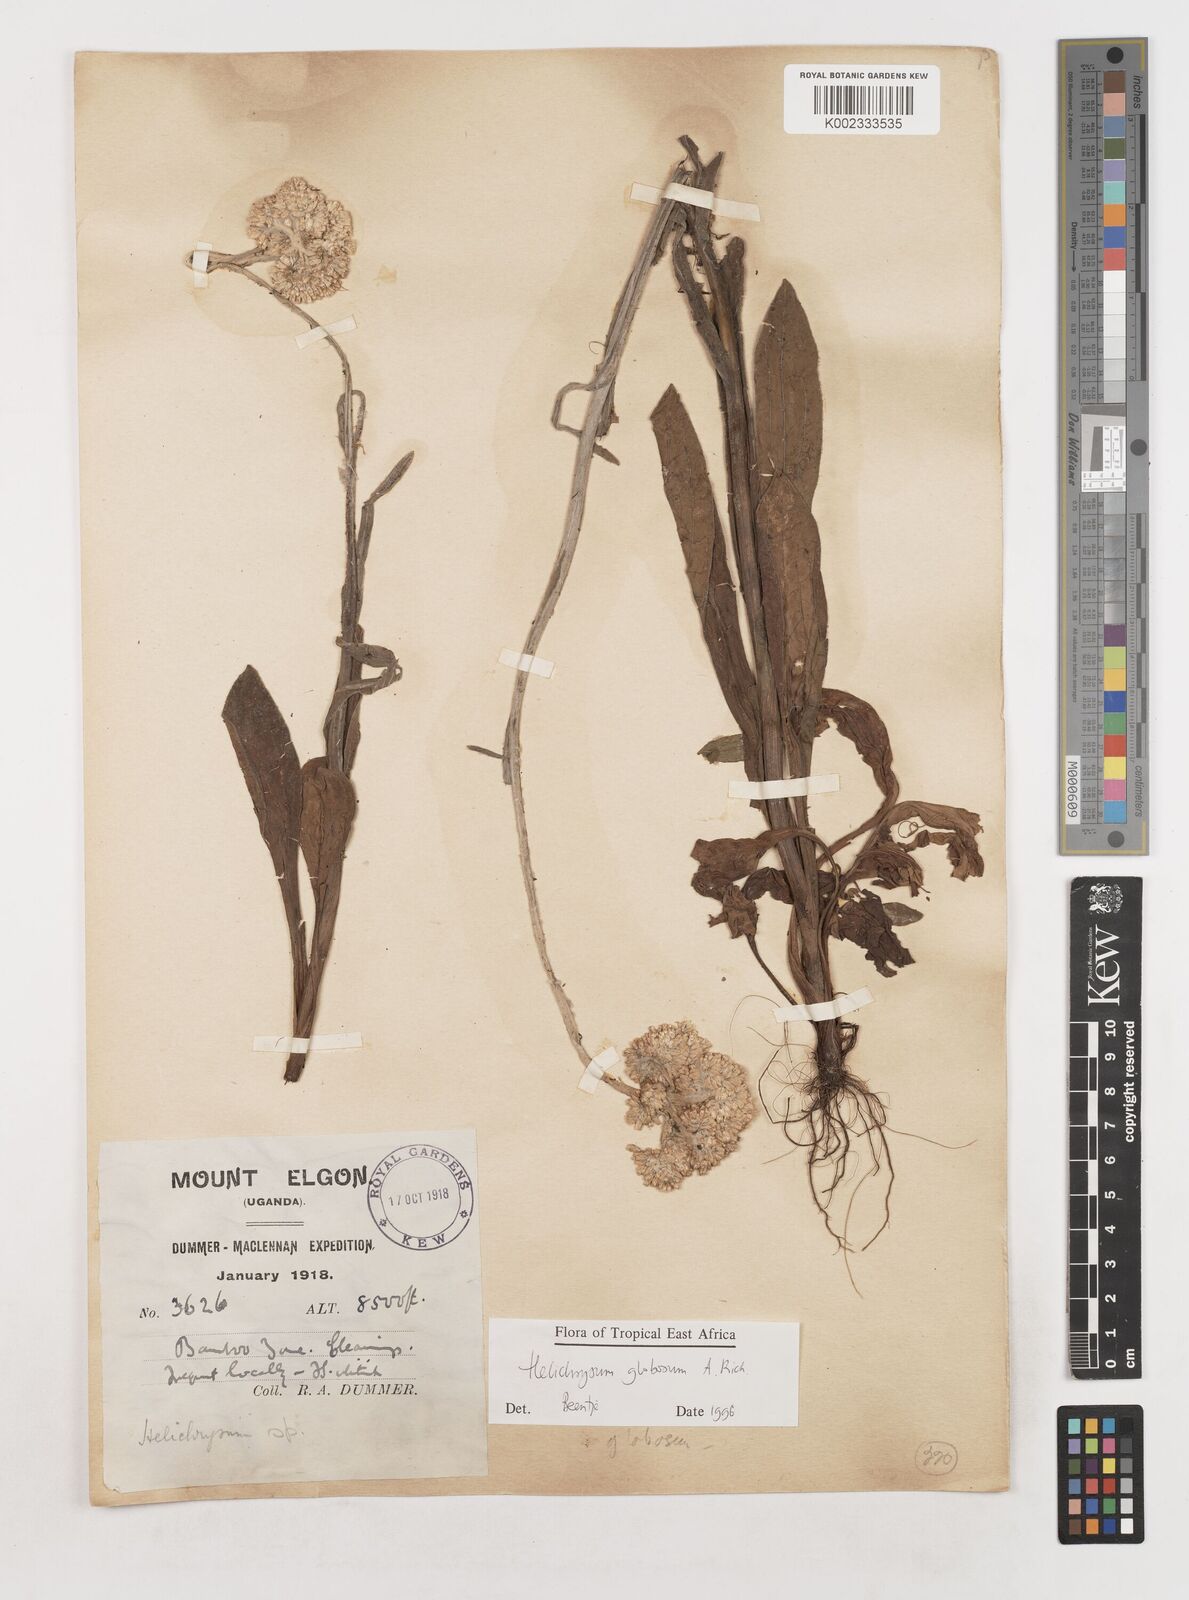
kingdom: Plantae
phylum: Tracheophyta
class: Magnoliopsida
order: Asterales
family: Asteraceae
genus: Helichrysum
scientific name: Helichrysum globosum
